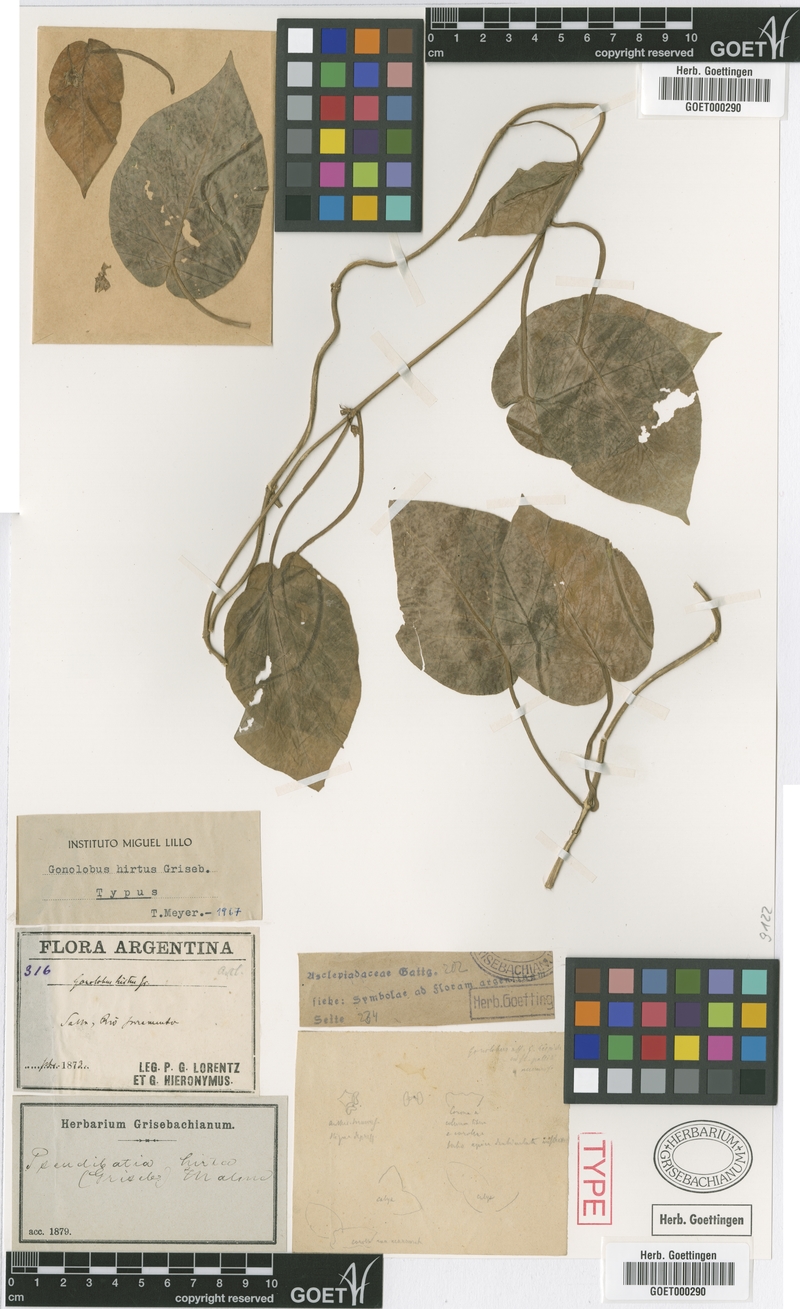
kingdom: Plantae
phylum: Tracheophyta
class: Magnoliopsida
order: Gentianales
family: Apocynaceae
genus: Ibatia
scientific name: Ibatia hirta
